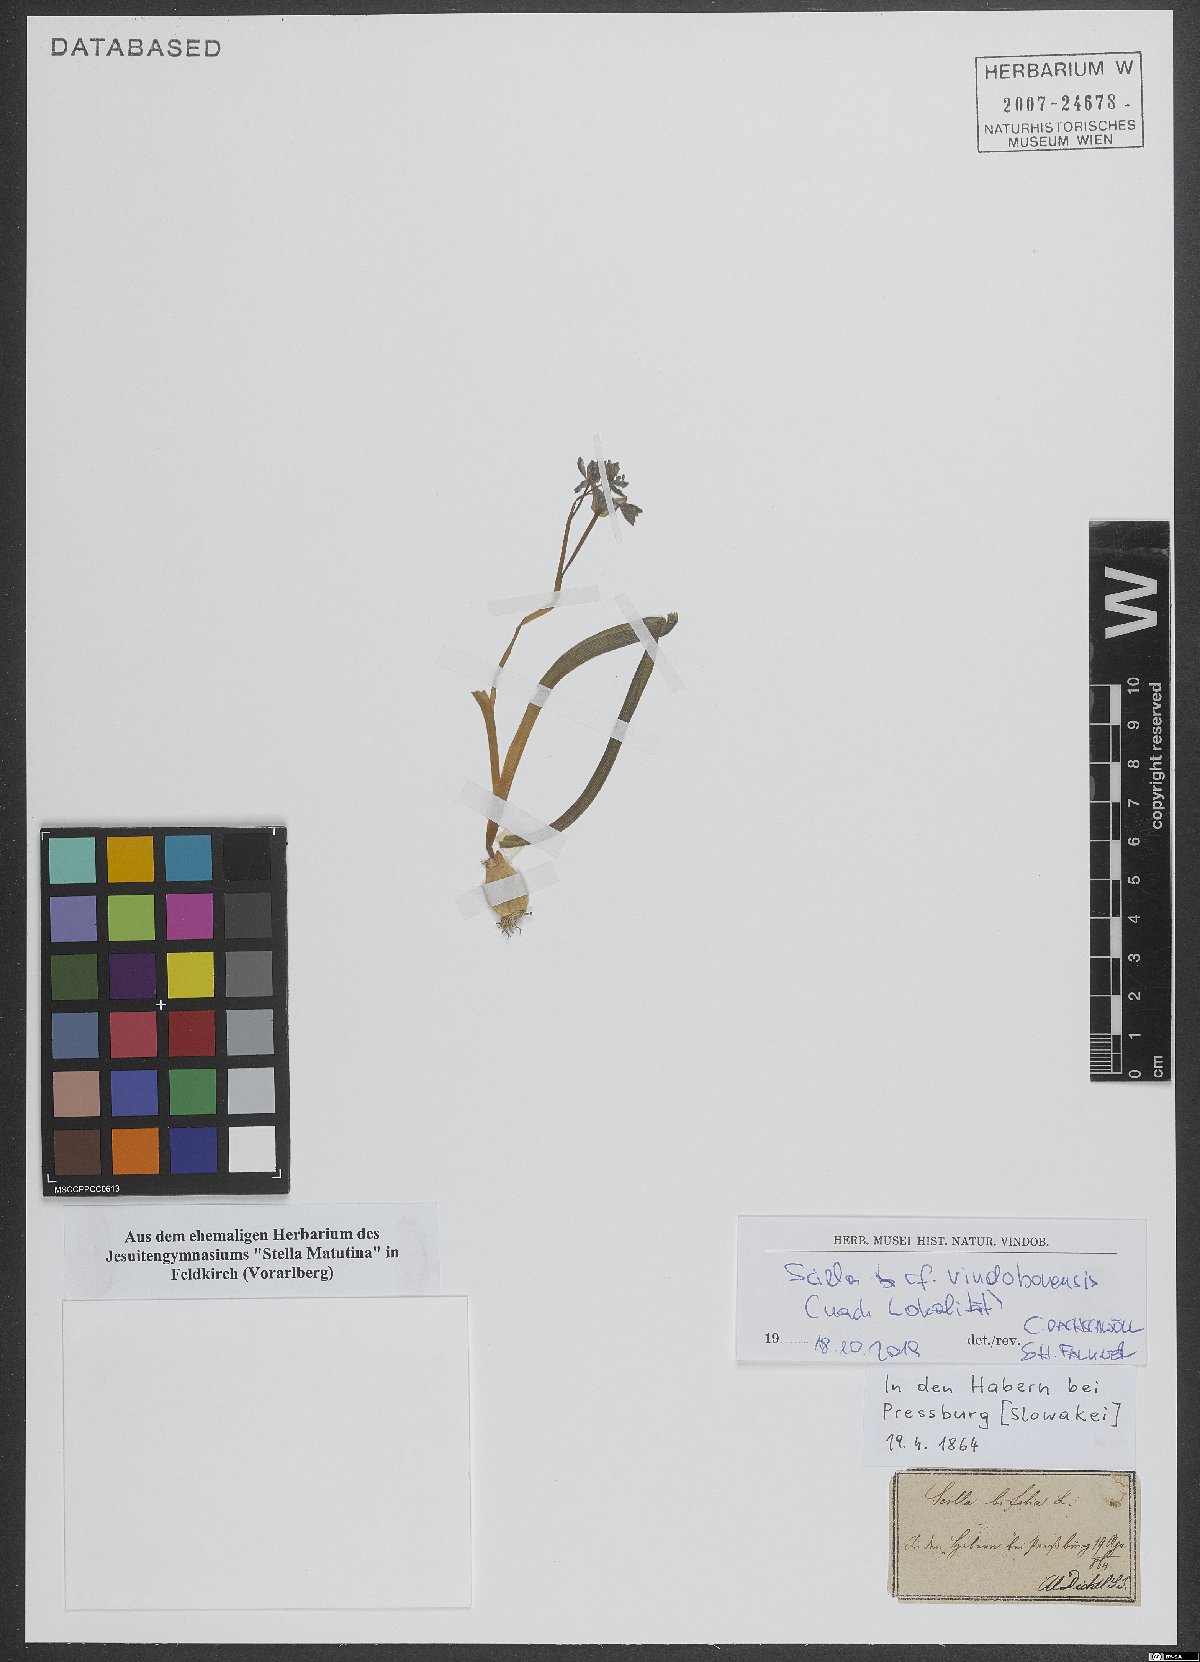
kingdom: Plantae
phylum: Tracheophyta
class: Liliopsida
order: Asparagales
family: Asparagaceae
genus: Scilla
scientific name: Scilla vindobonensis
